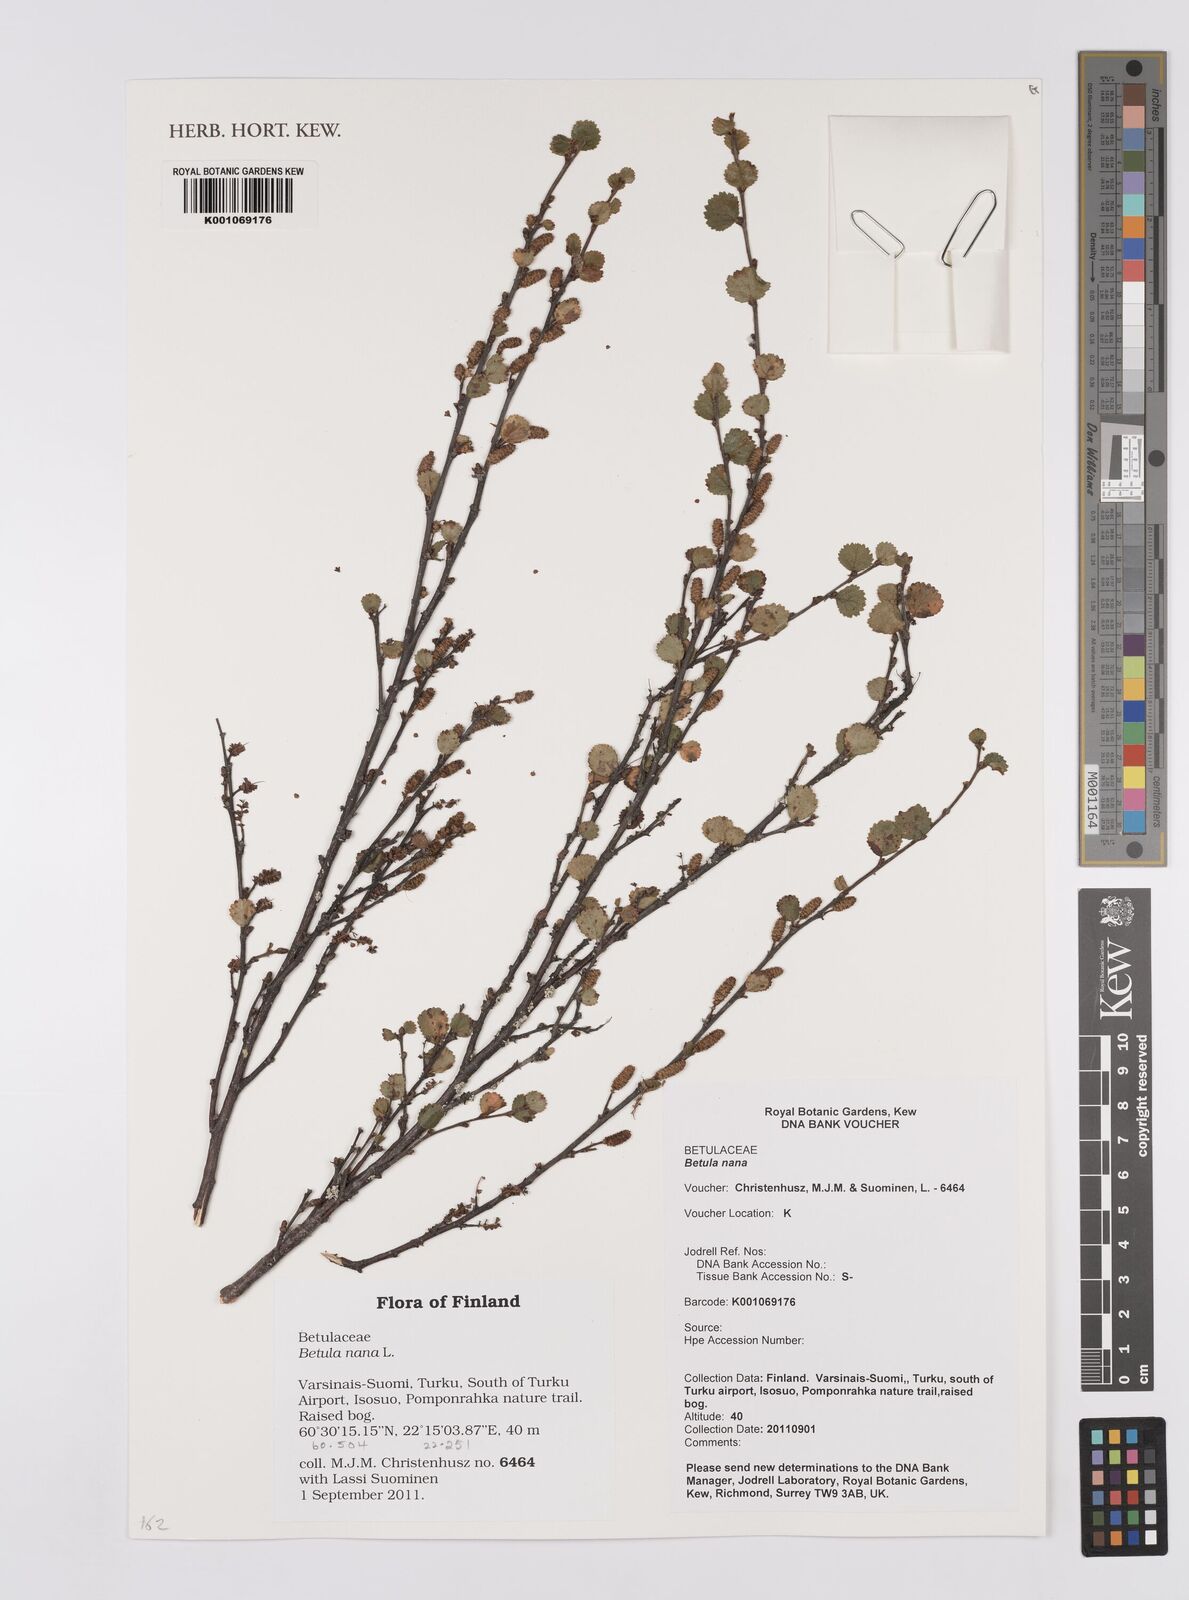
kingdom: Plantae
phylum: Tracheophyta
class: Magnoliopsida
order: Fagales
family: Betulaceae
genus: Betula
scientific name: Betula nana
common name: Arctic dwarf birch
